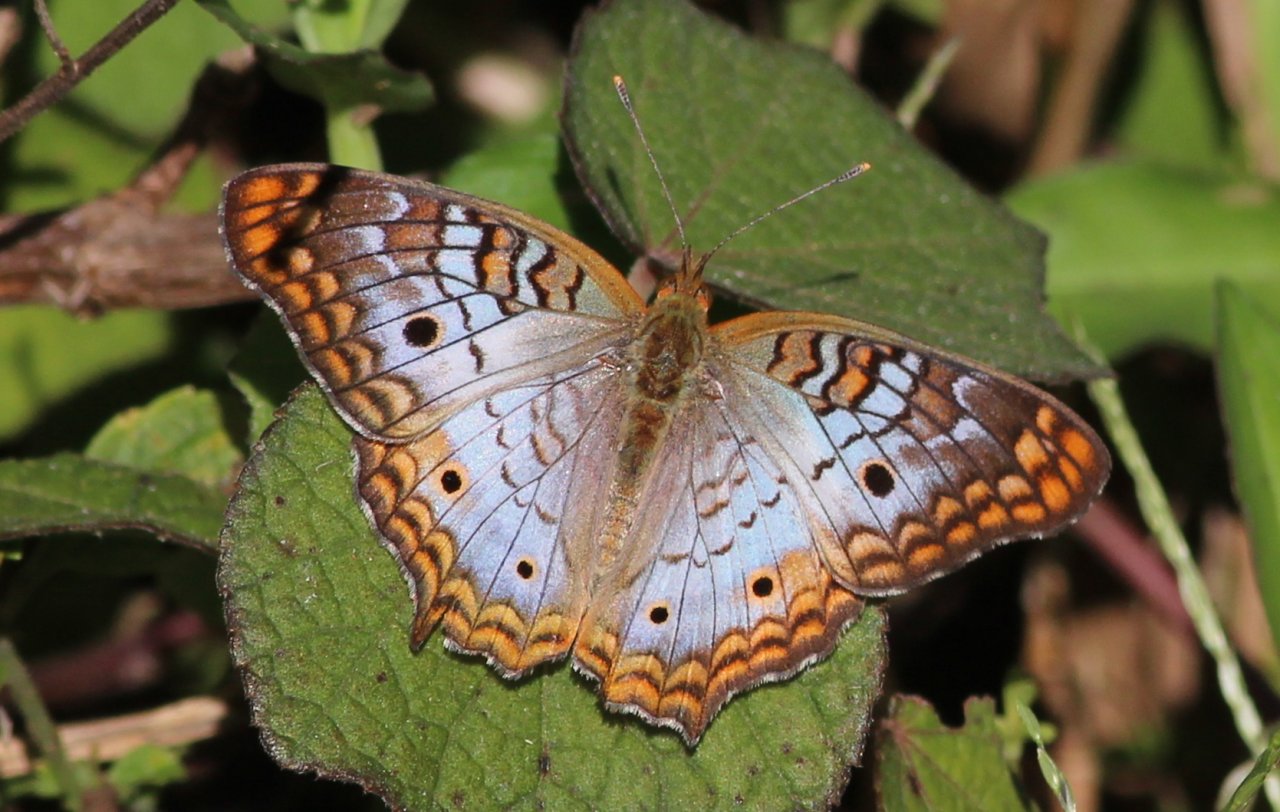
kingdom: Animalia
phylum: Arthropoda
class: Insecta
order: Lepidoptera
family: Nymphalidae
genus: Anartia
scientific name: Anartia jatrophae
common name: White Peacock
